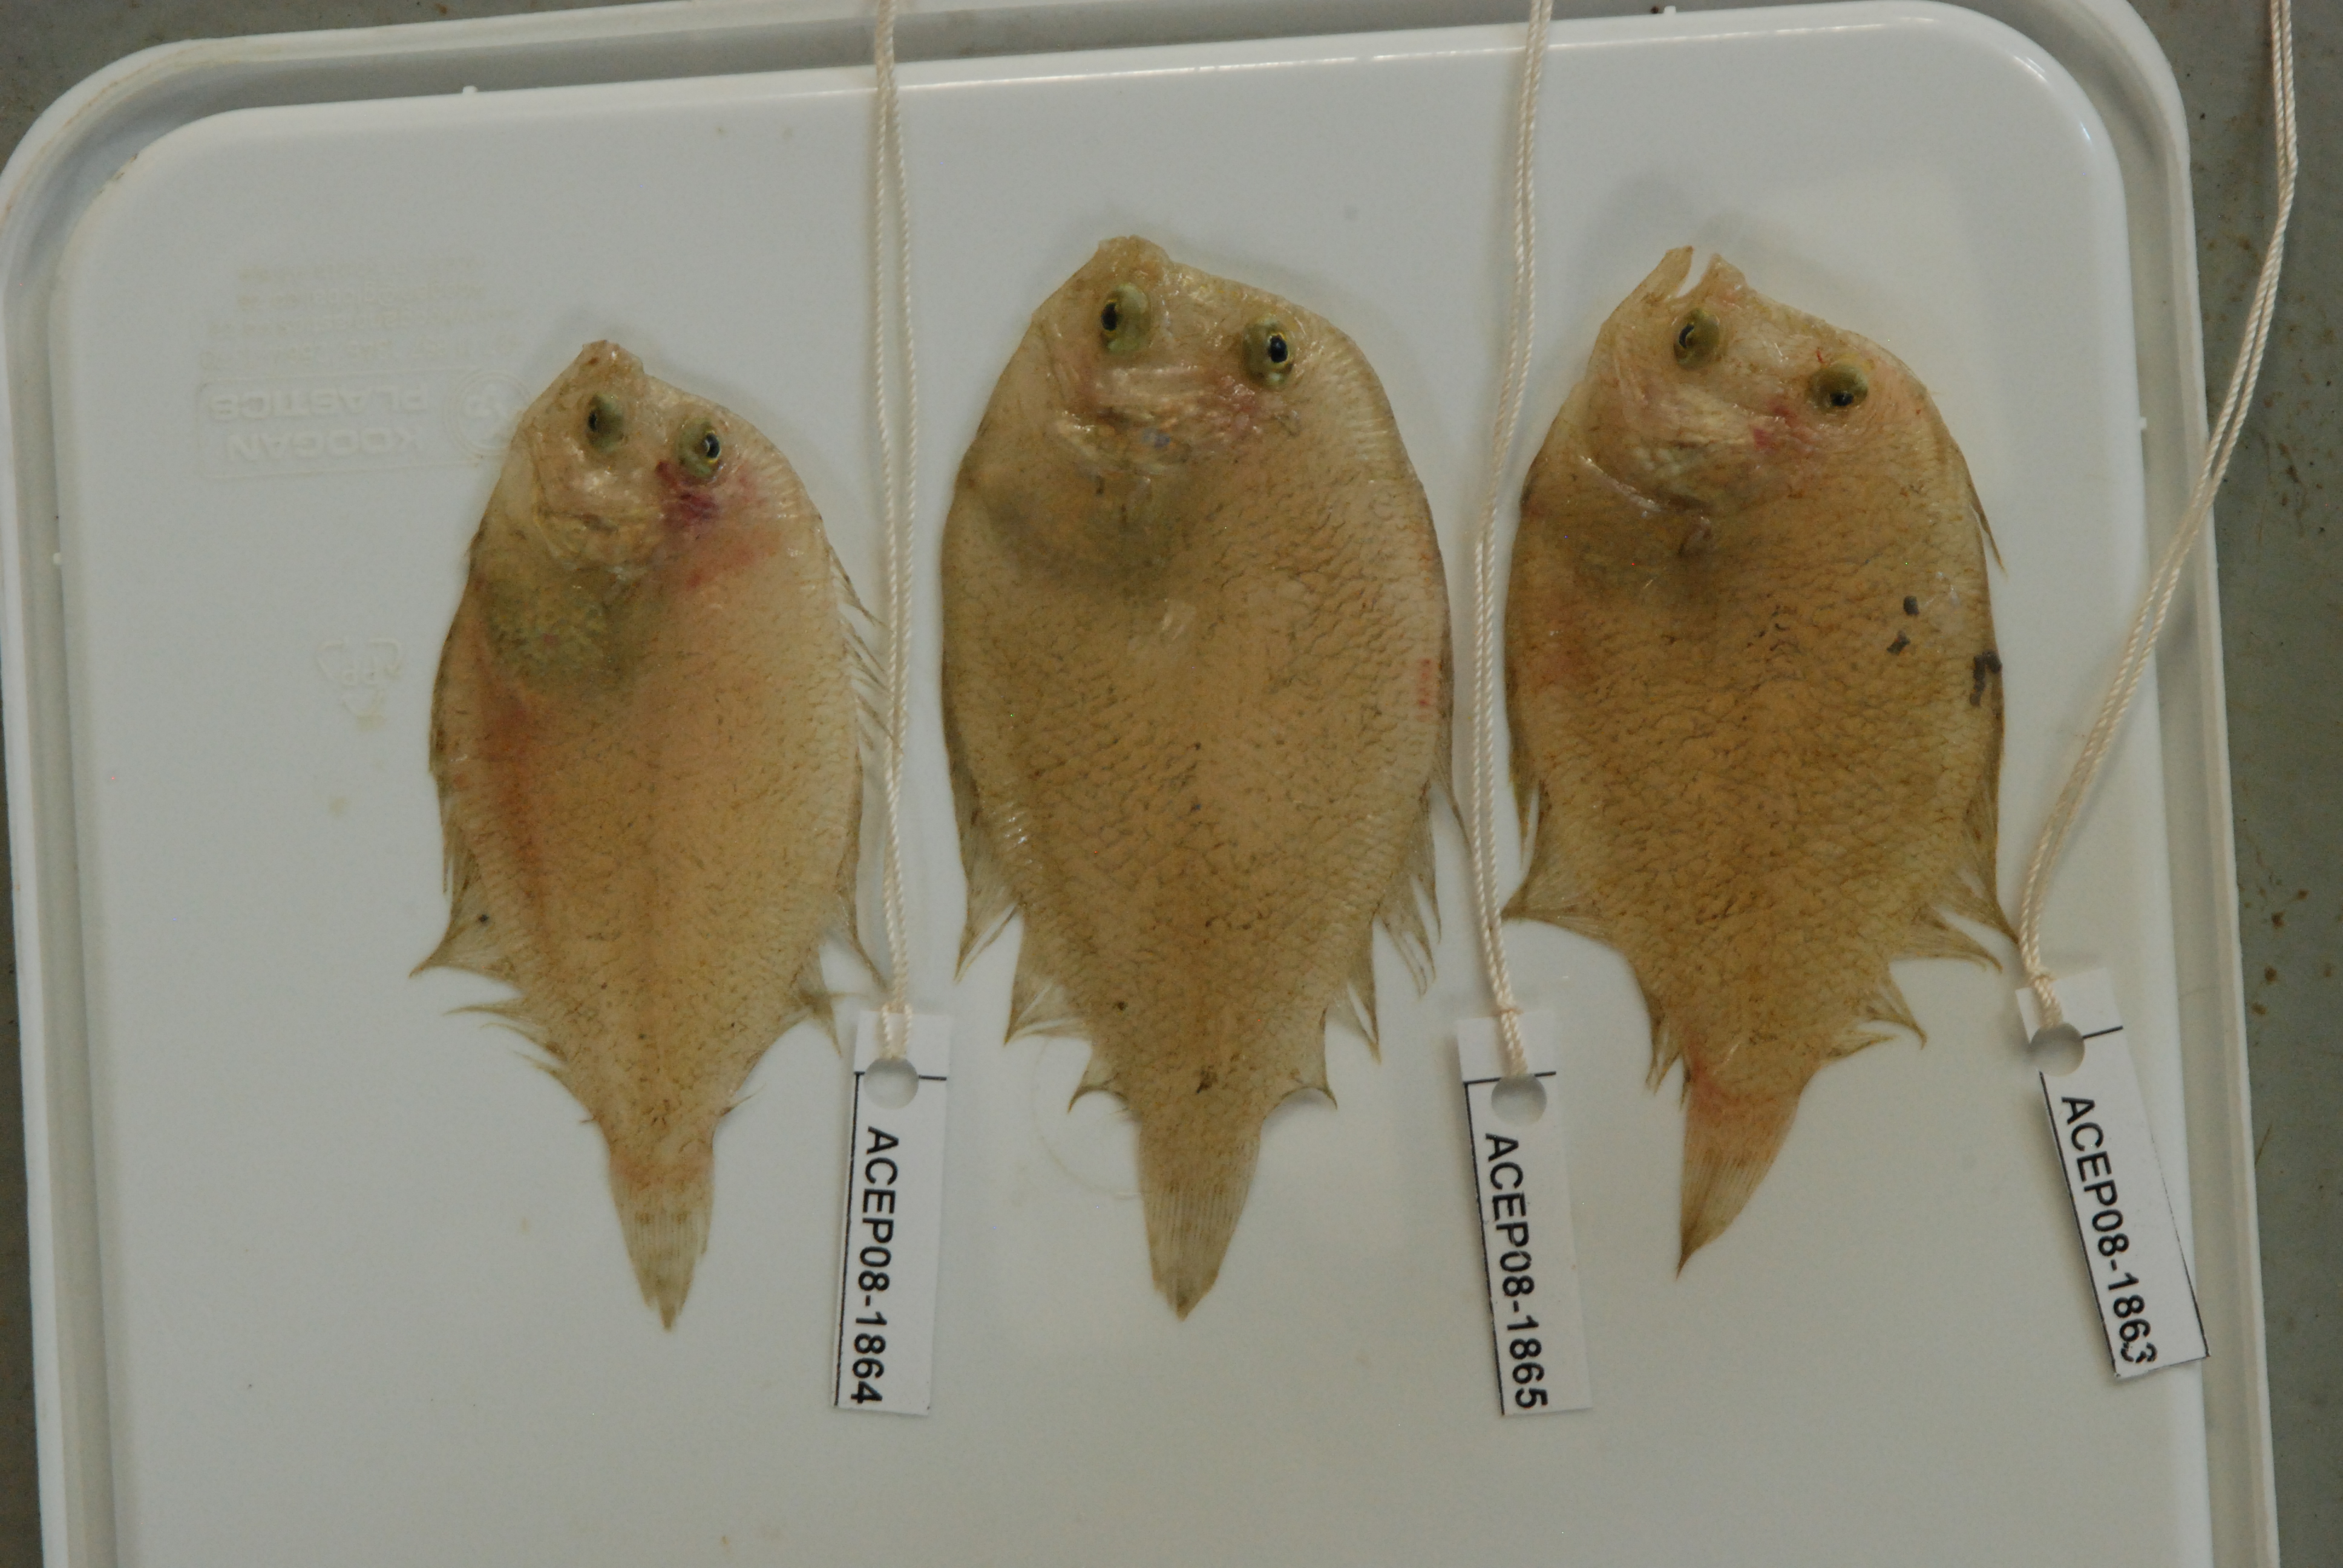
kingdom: Animalia
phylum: Chordata
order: Pleuronectiformes
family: Bothidae
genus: Crossorhombus
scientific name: Crossorhombus valderostratus
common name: Broadbrow flounder
